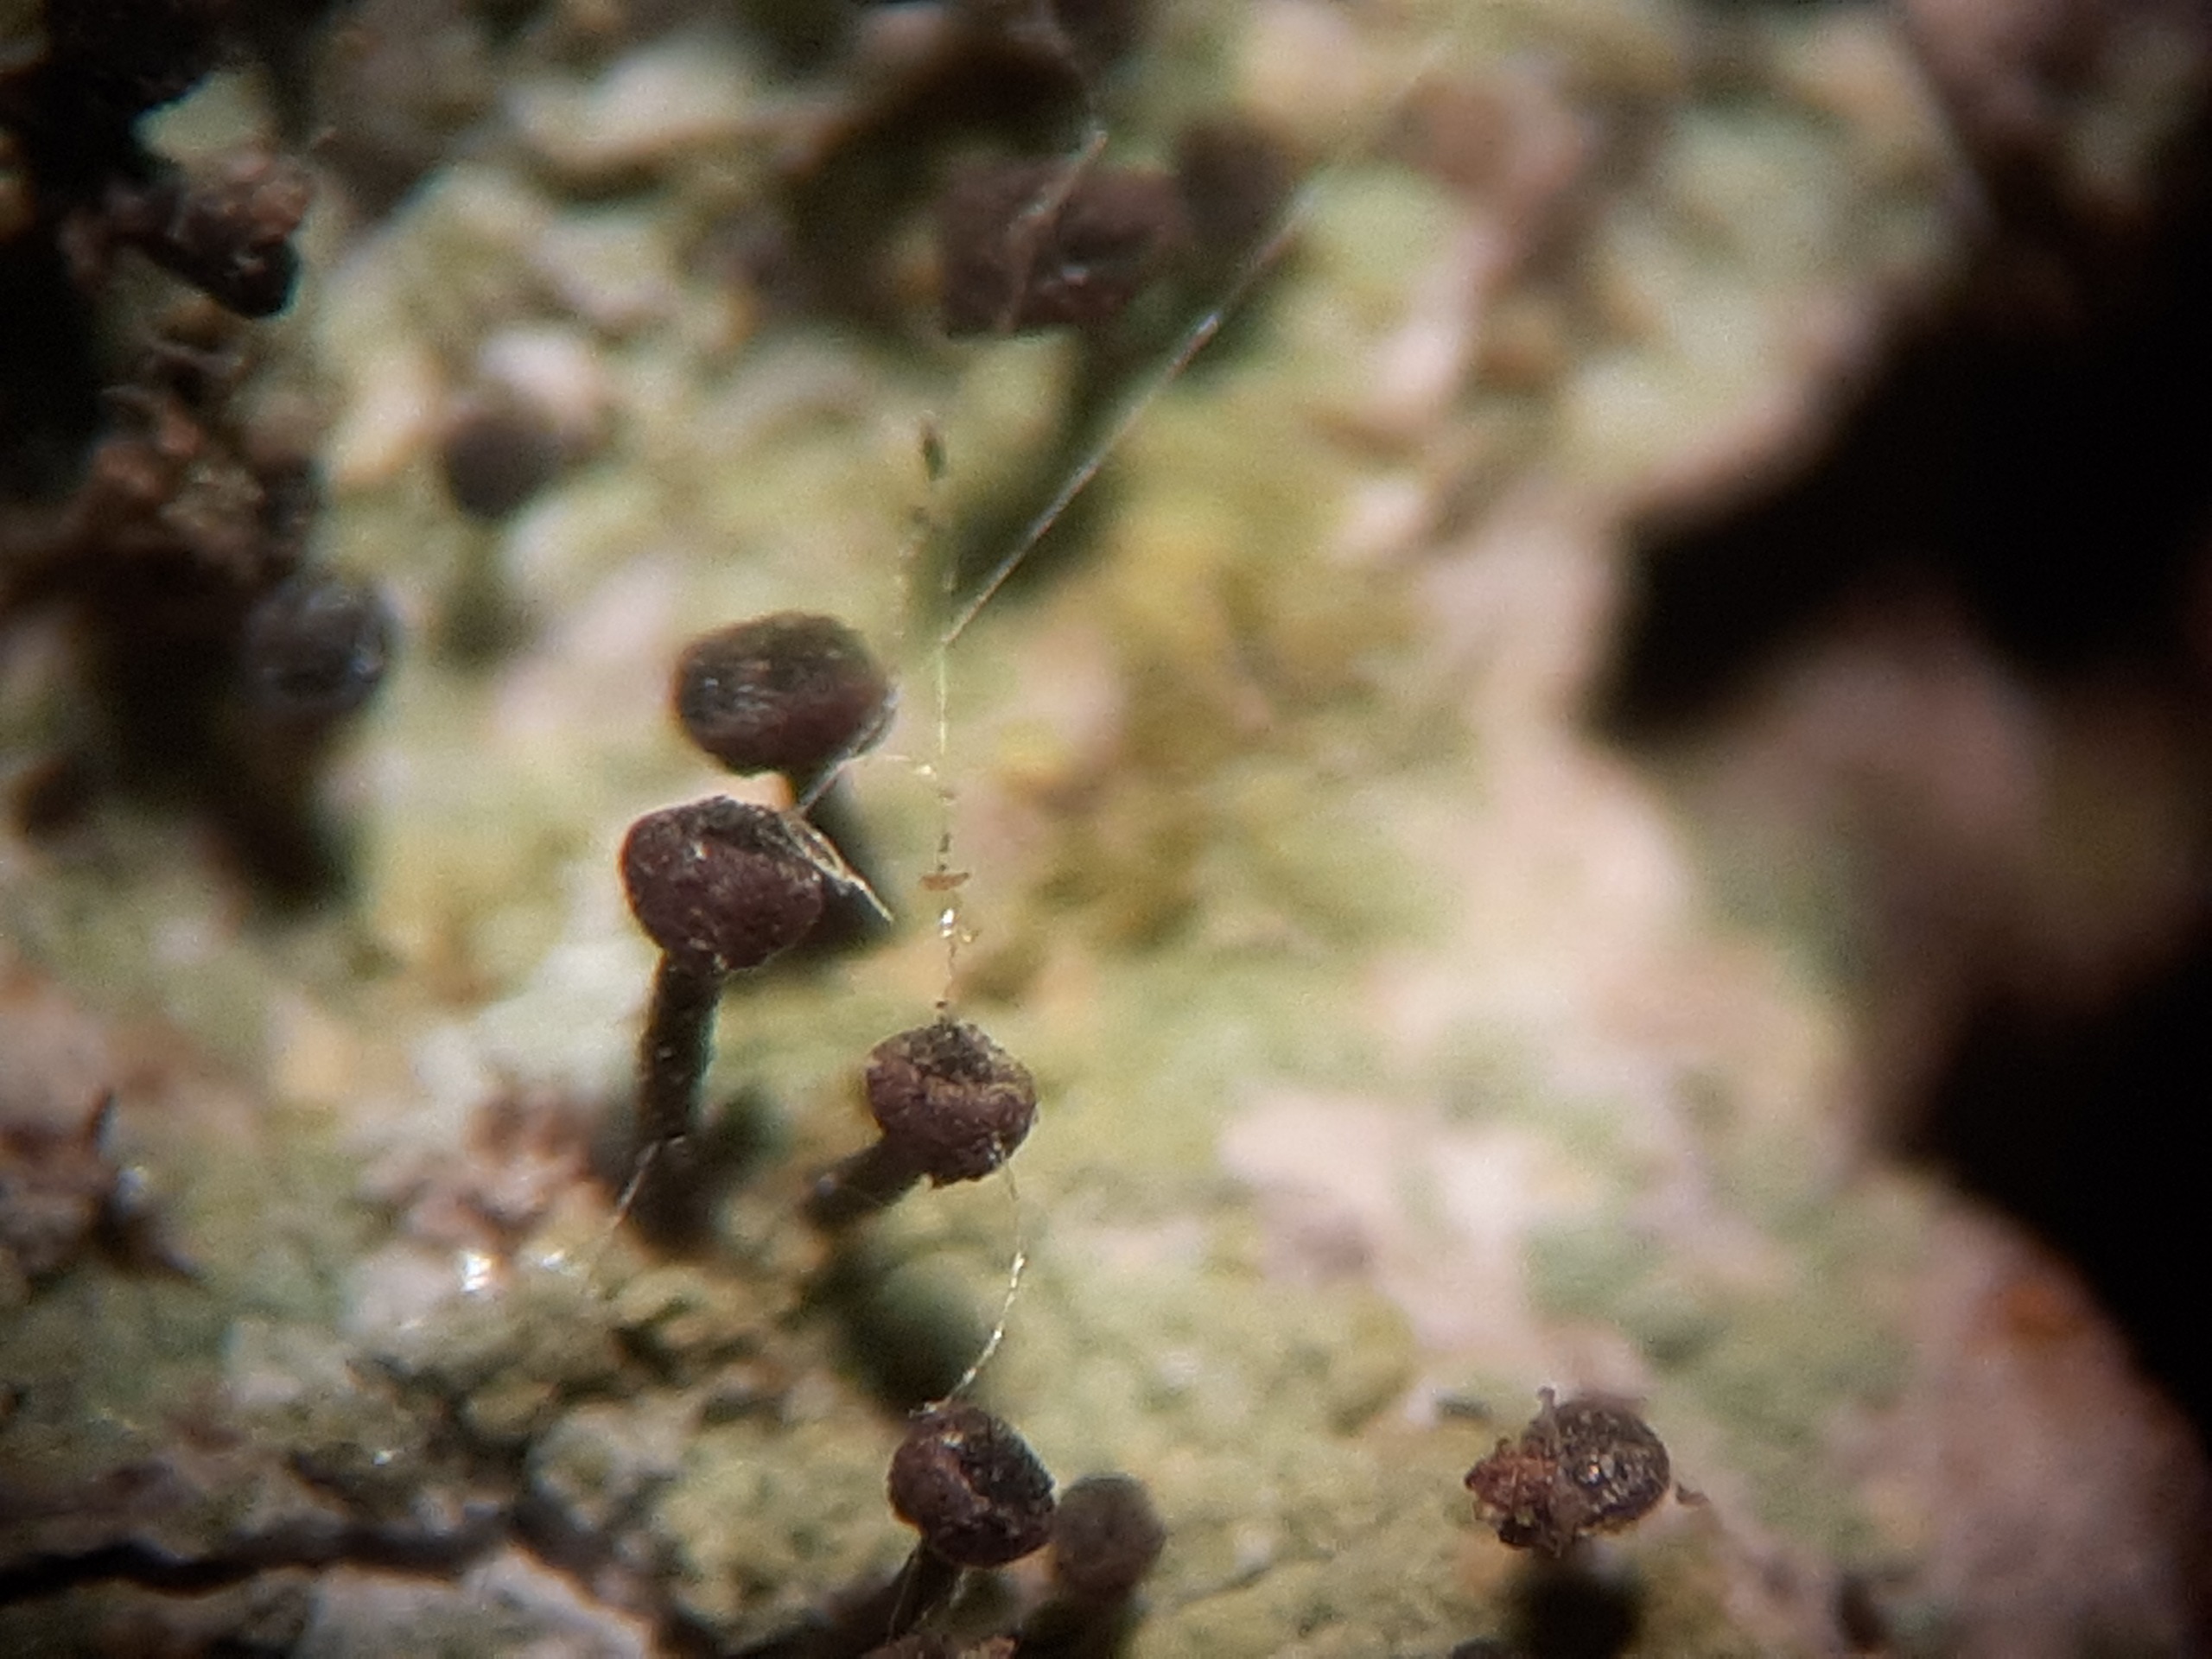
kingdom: Fungi
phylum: Ascomycota
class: Lecanoromycetes
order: Caliciales
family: Caliciaceae
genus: Calicium
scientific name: Calicium viride
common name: Gulgrøn nålelav
